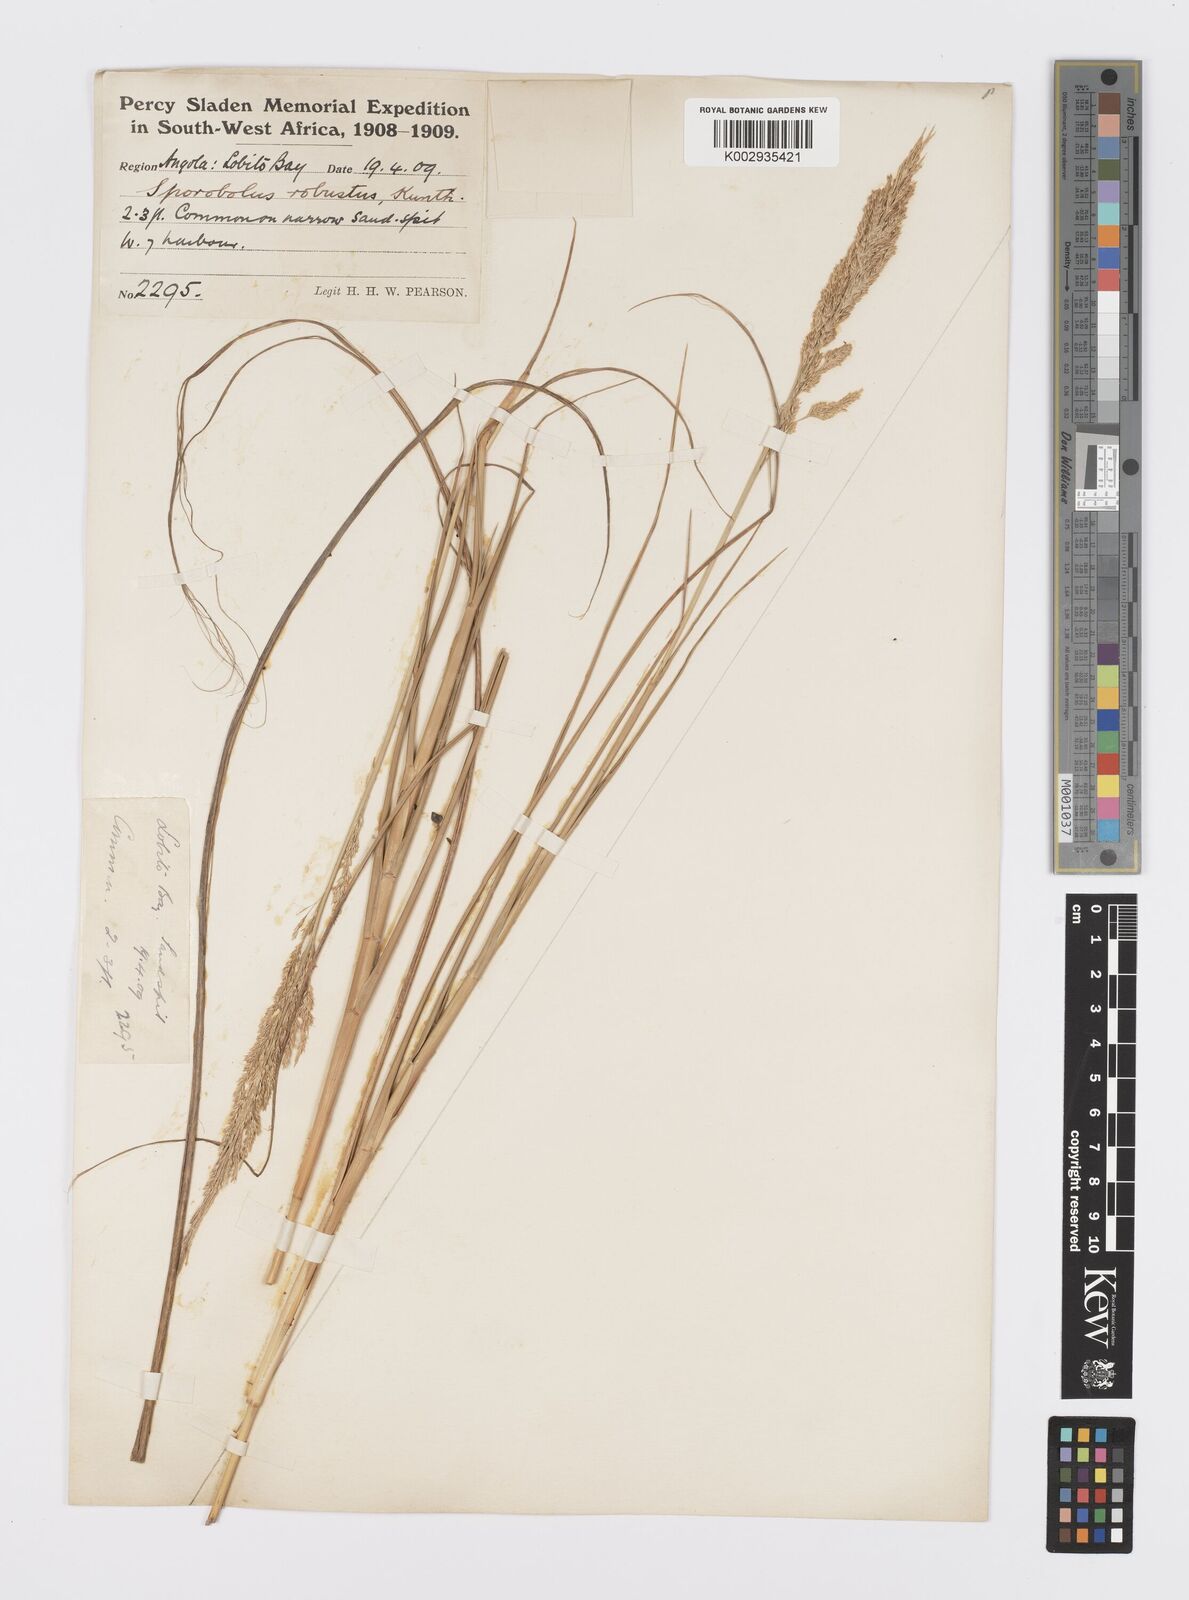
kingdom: Plantae
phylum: Tracheophyta
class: Liliopsida
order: Poales
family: Poaceae
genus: Sporobolus
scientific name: Sporobolus robustus
